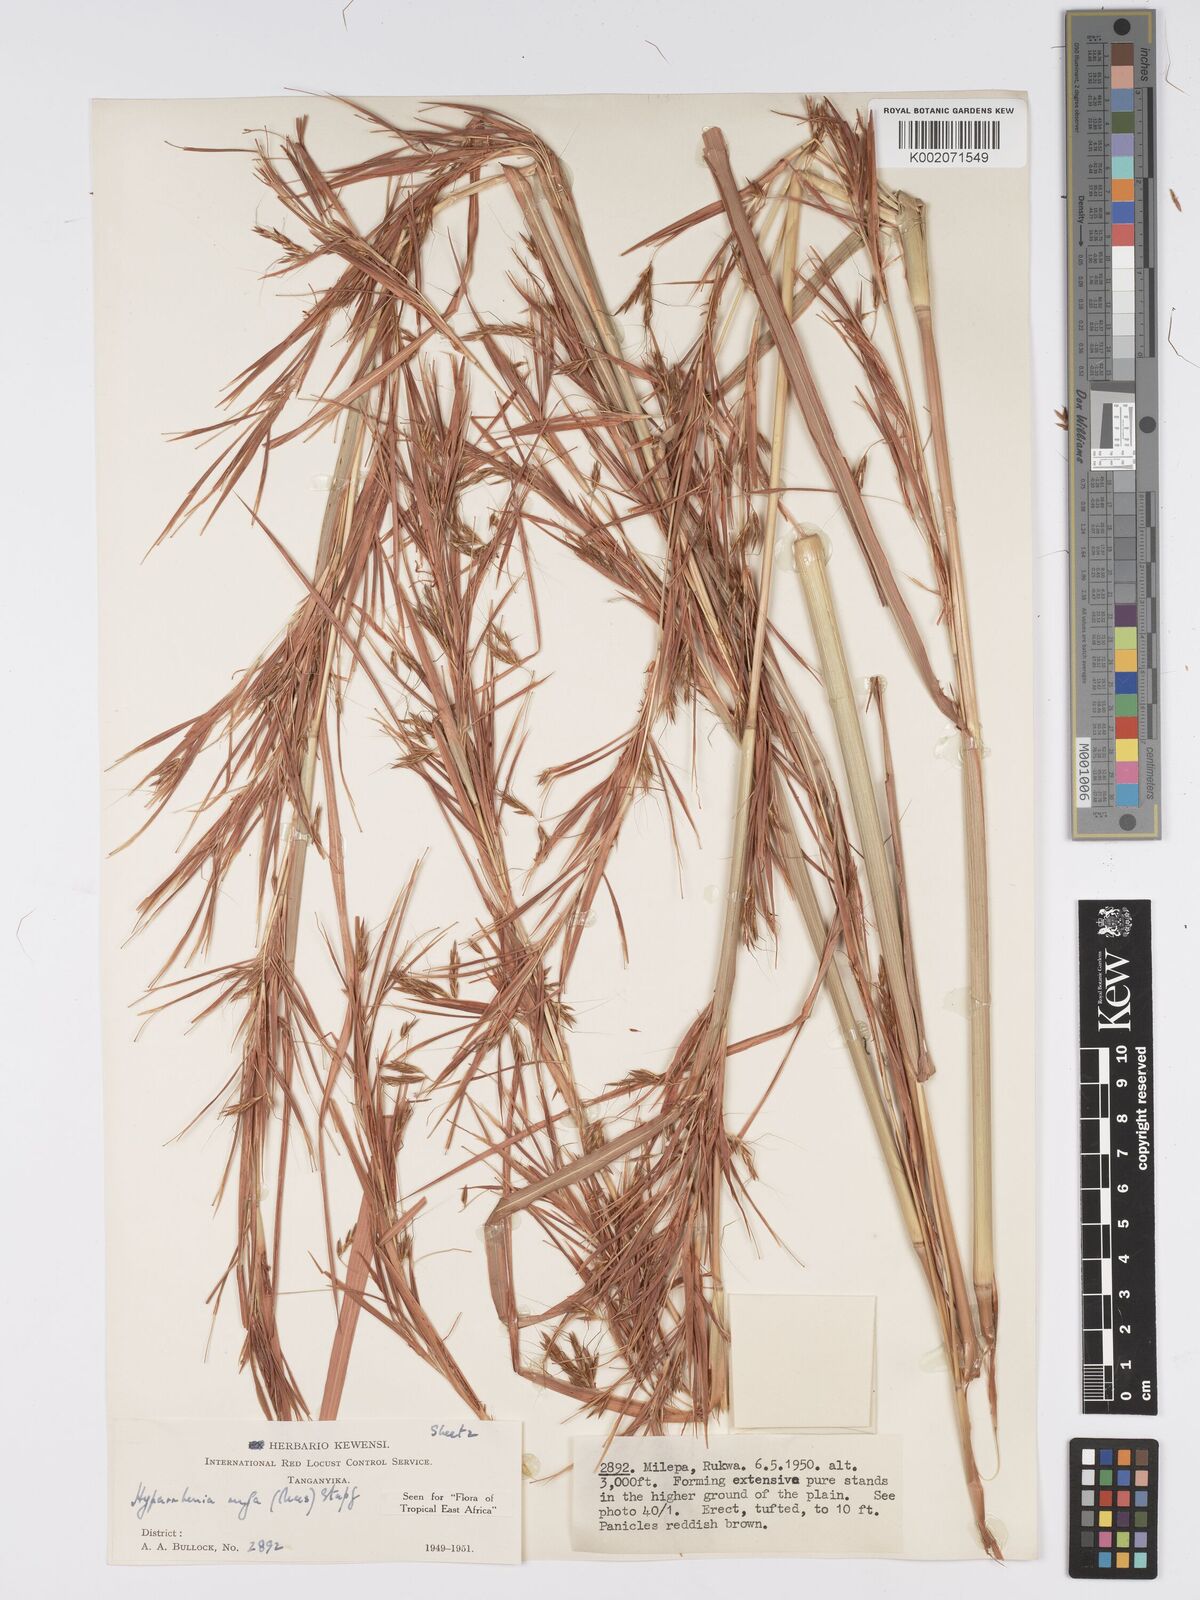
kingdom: Plantae
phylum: Tracheophyta
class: Liliopsida
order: Poales
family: Poaceae
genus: Hyparrhenia
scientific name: Hyparrhenia rufa
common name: Jaraguagrass
